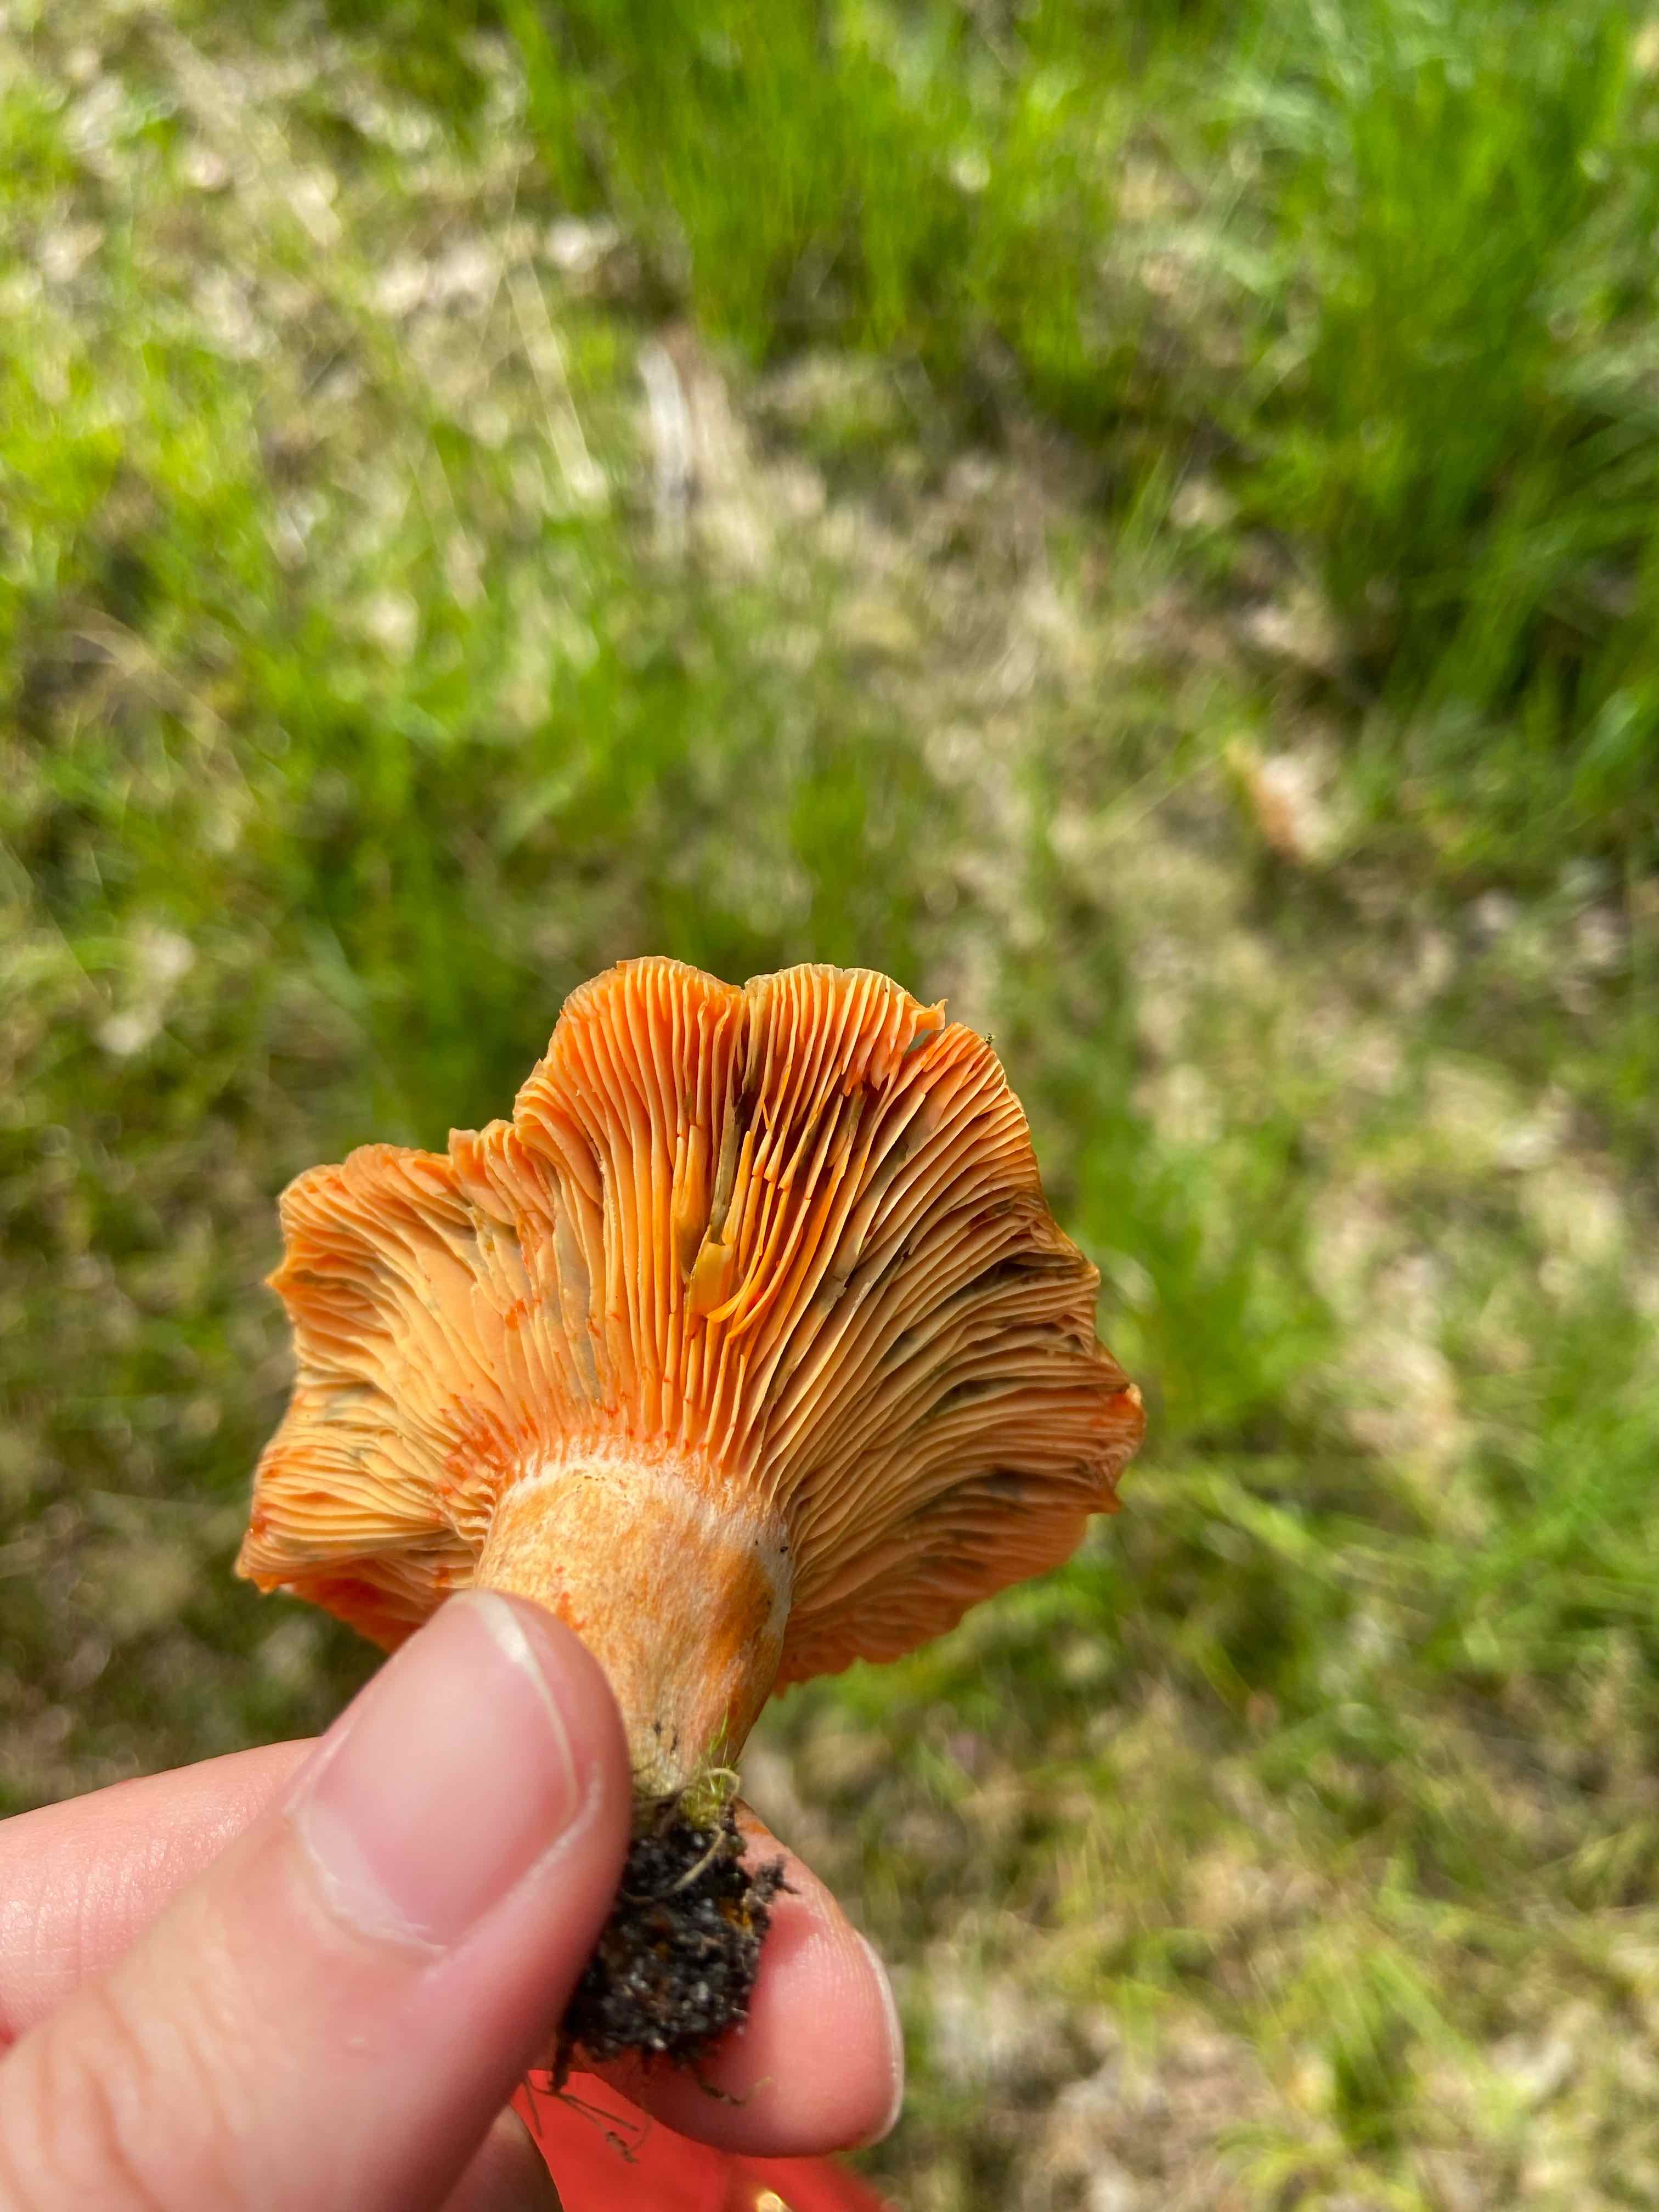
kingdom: Fungi
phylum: Basidiomycota
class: Agaricomycetes
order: Russulales
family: Russulaceae
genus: Lactarius
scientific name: Lactarius deterrimus
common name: gran-mælkehat
